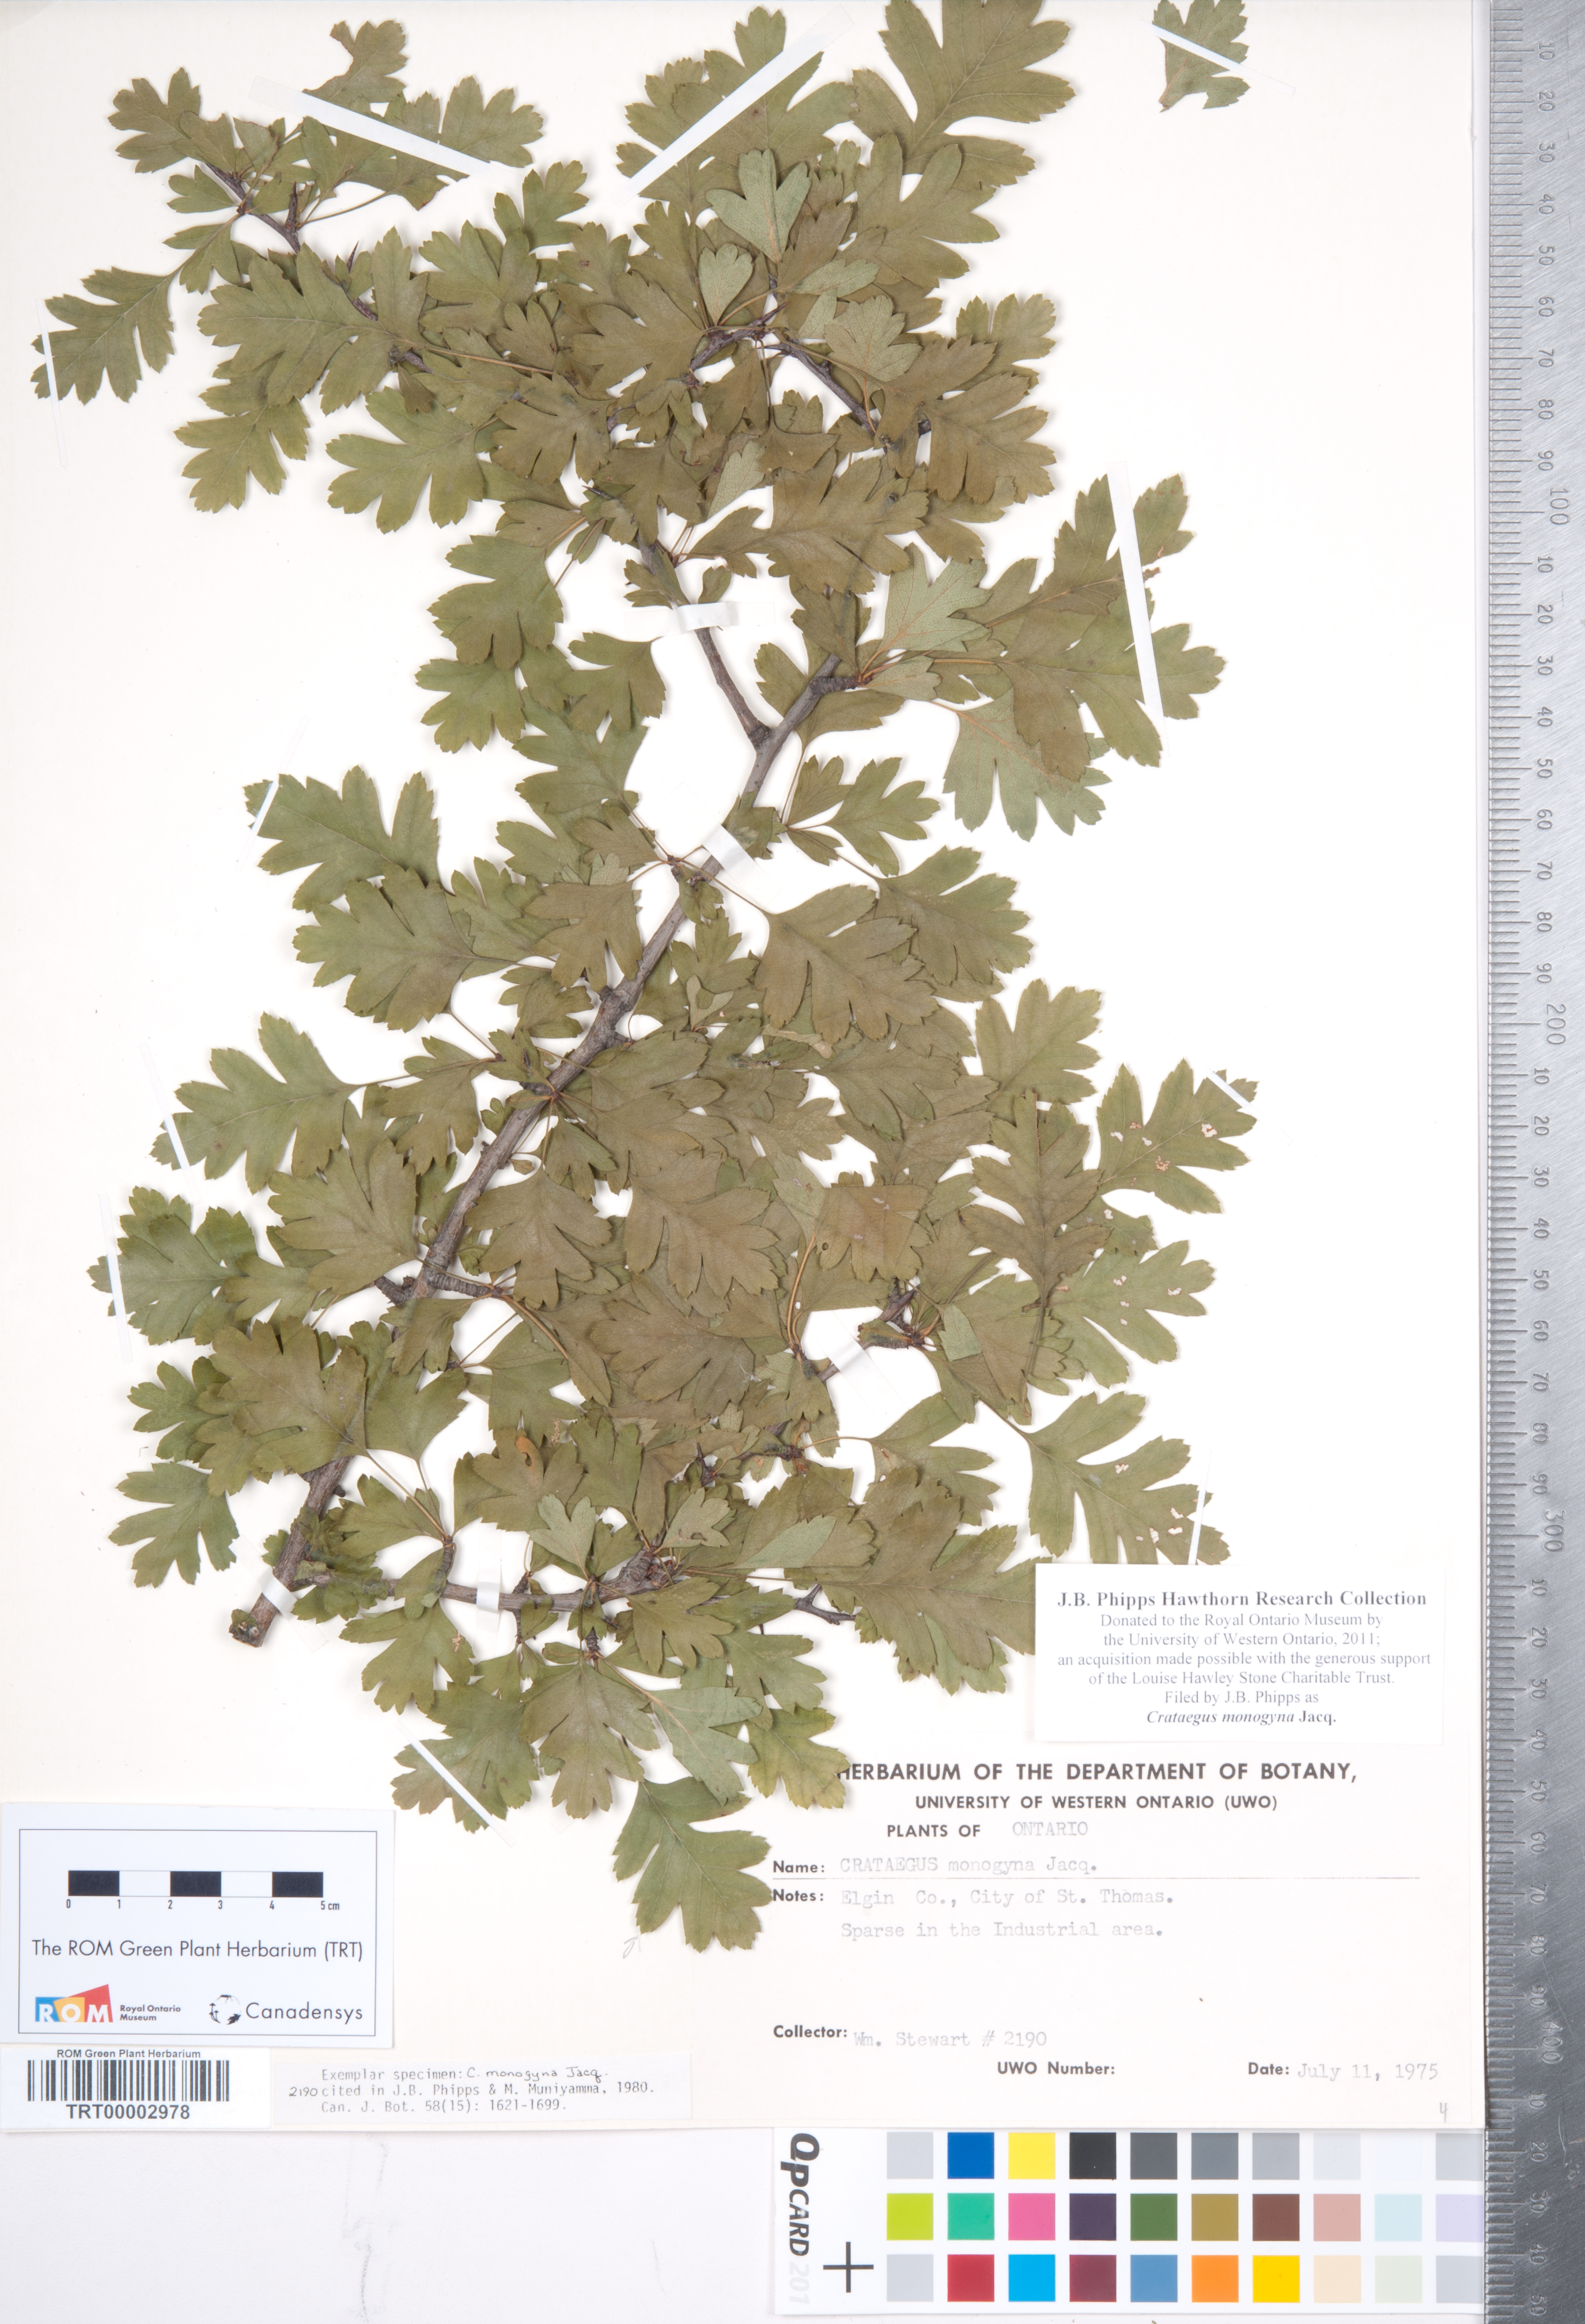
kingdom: Plantae
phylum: Tracheophyta
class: Magnoliopsida
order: Rosales
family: Rosaceae
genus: Crataegus
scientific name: Crataegus monogyna
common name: Hawthorn
